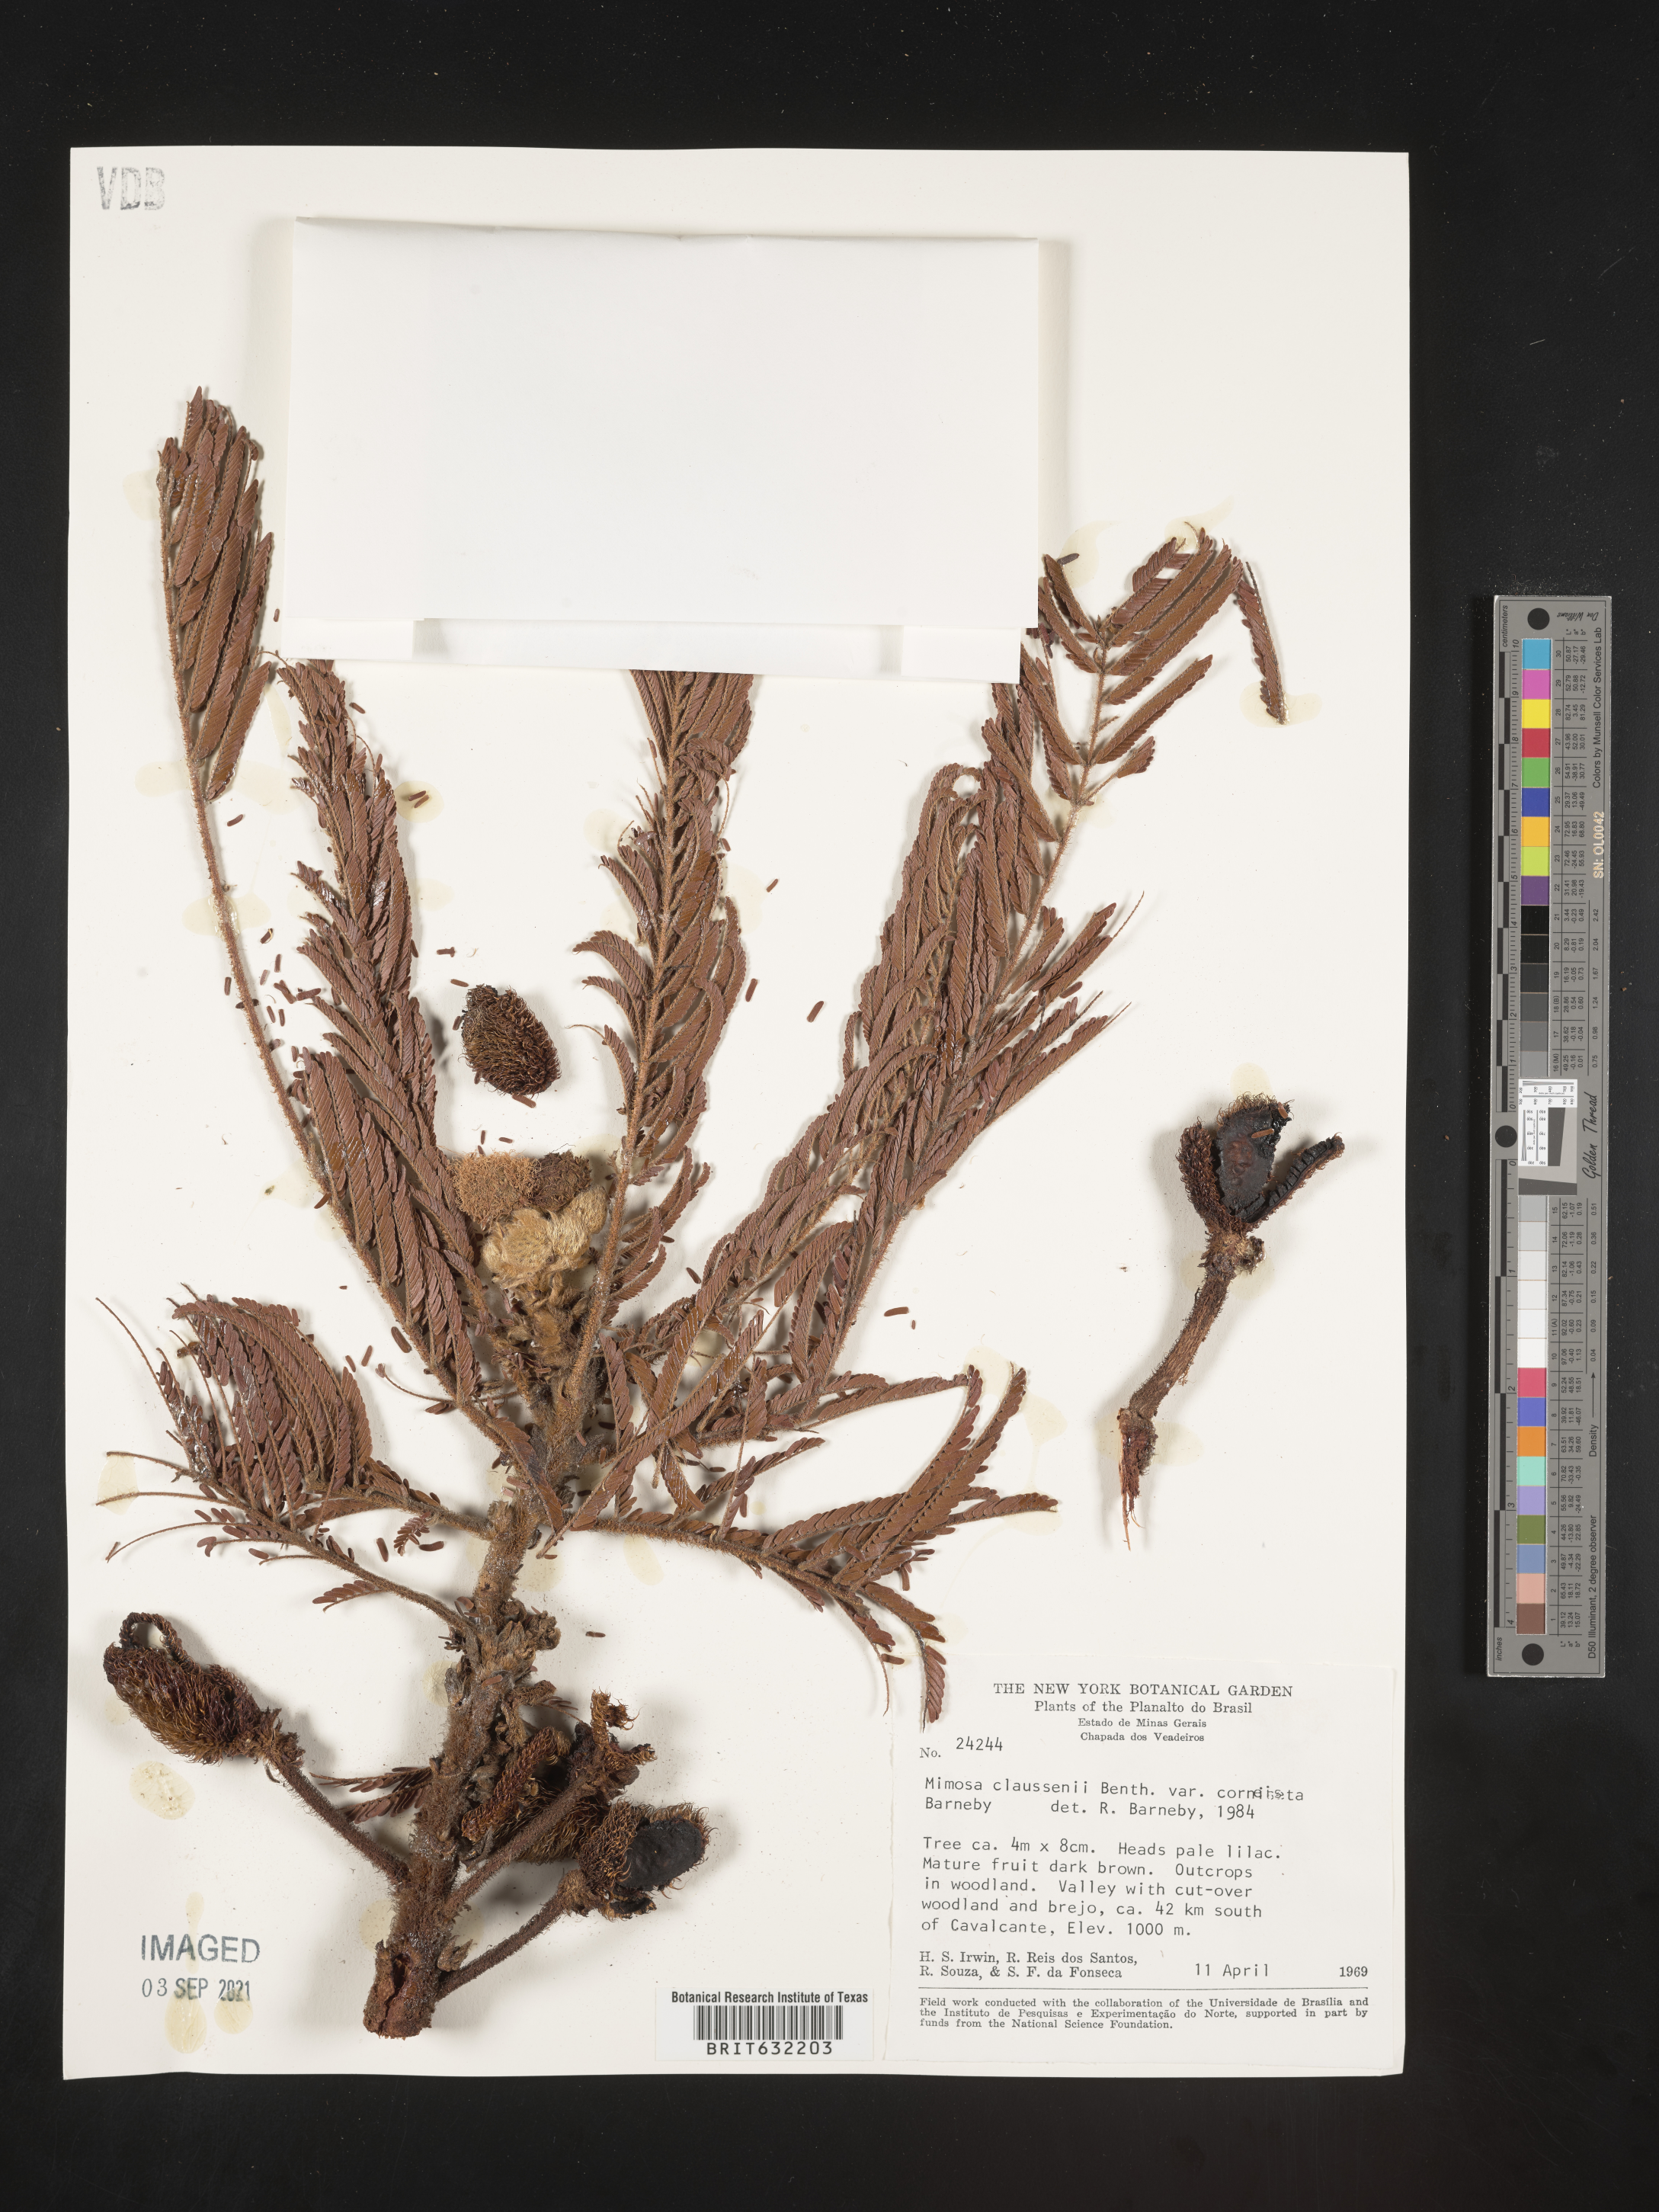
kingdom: Plantae
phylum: Tracheophyta
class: Magnoliopsida
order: Fabales
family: Fabaceae
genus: Mimosa
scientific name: Mimosa
